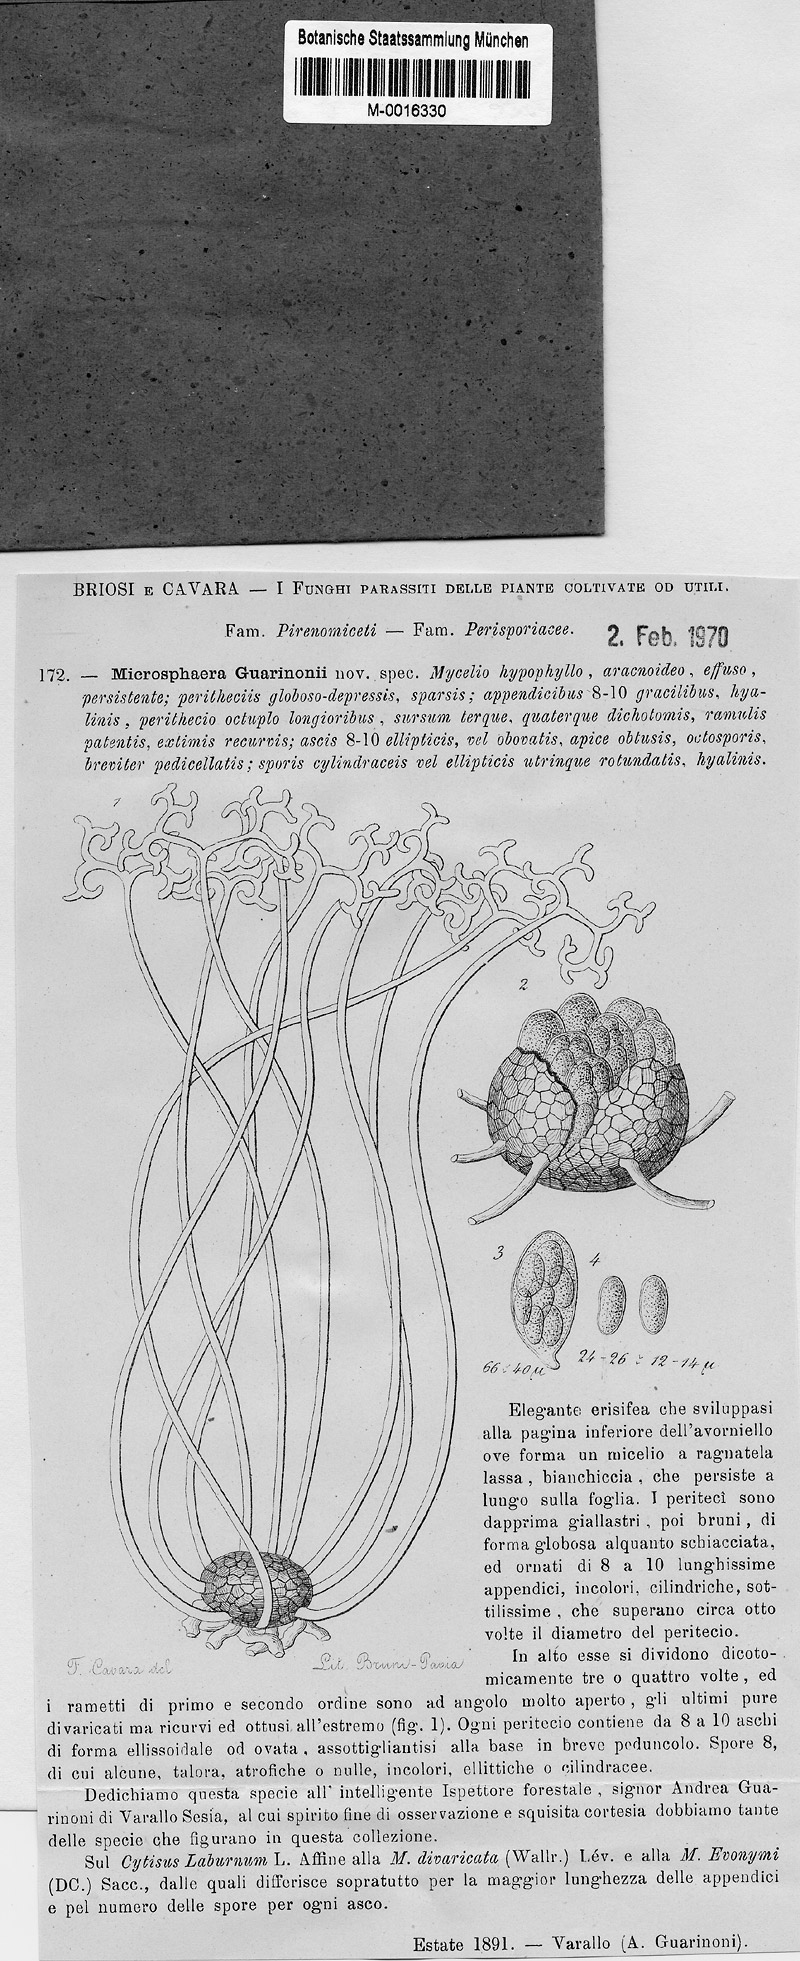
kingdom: Fungi
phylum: Ascomycota
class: Leotiomycetes
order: Helotiales
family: Erysiphaceae
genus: Erysiphe
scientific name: Erysiphe guarinonii
